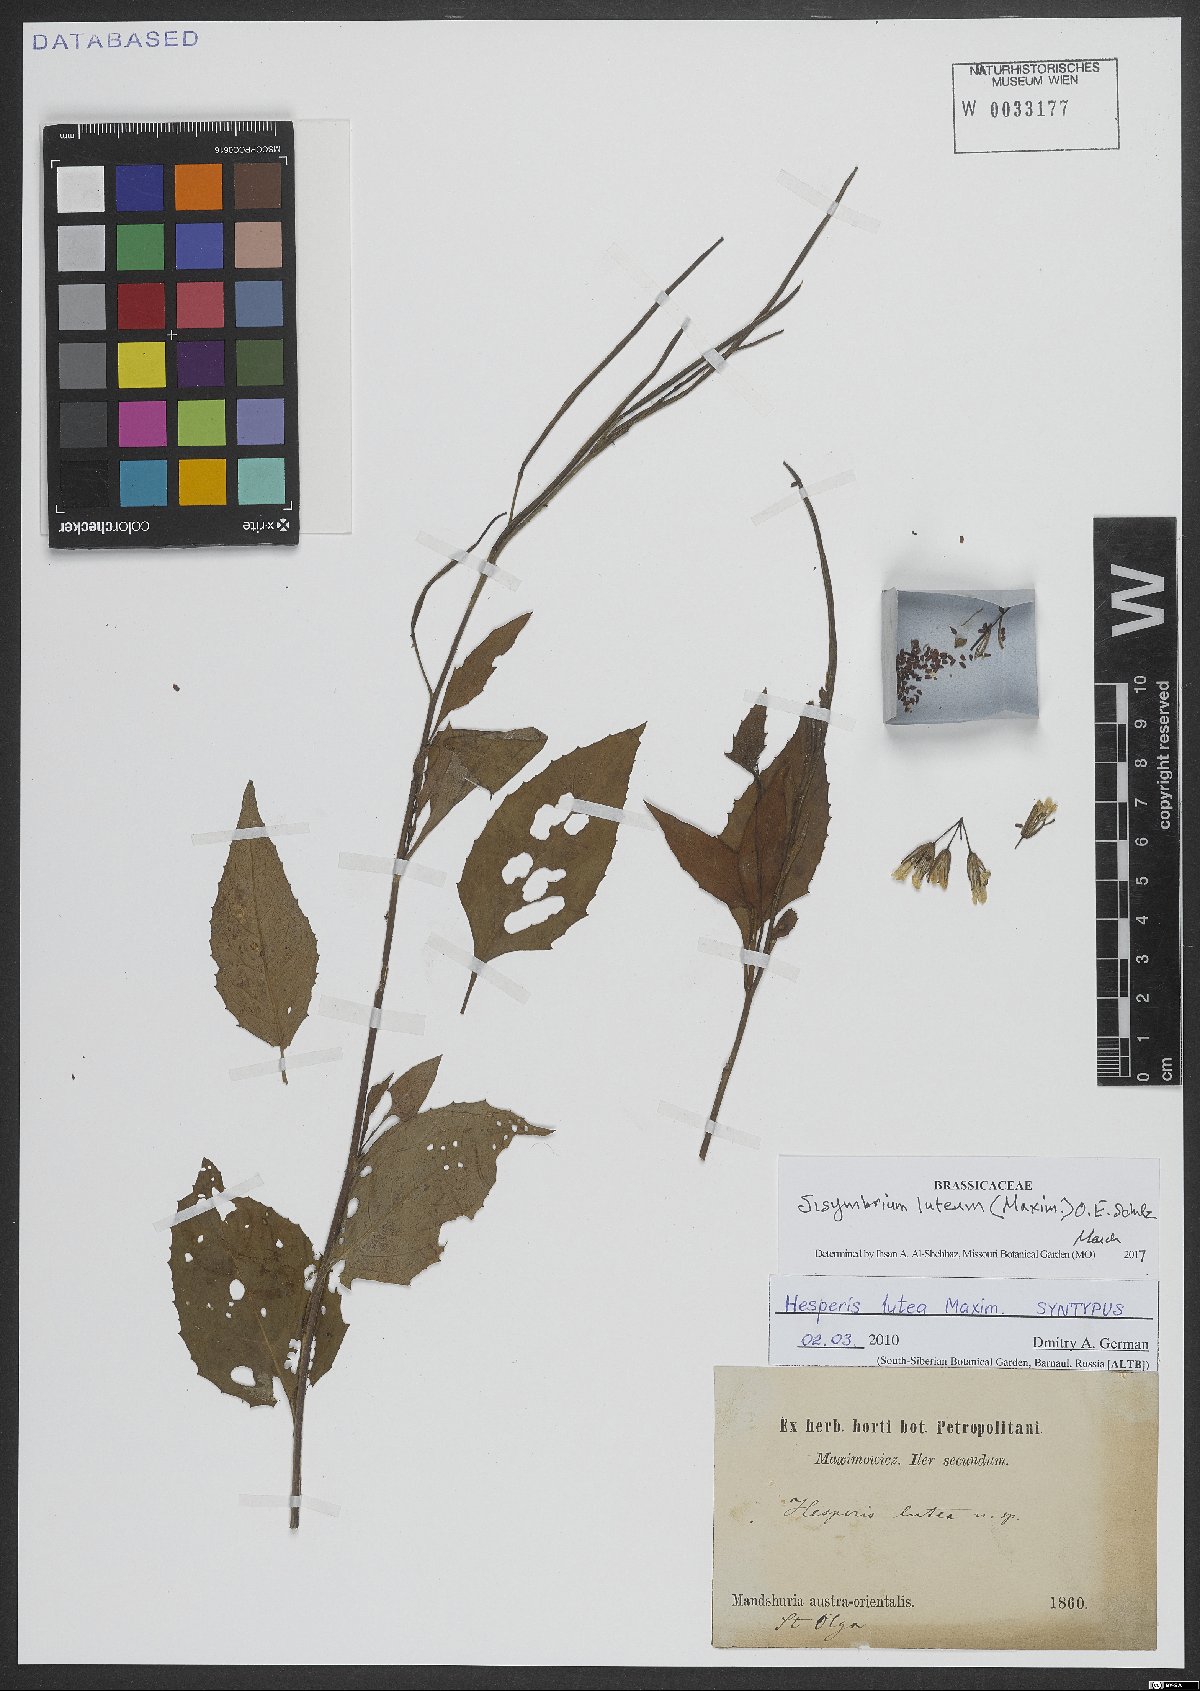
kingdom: Plantae
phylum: Tracheophyta
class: Magnoliopsida
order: Brassicales
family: Brassicaceae
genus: Sisymbrium
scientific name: Sisymbrium luteum
